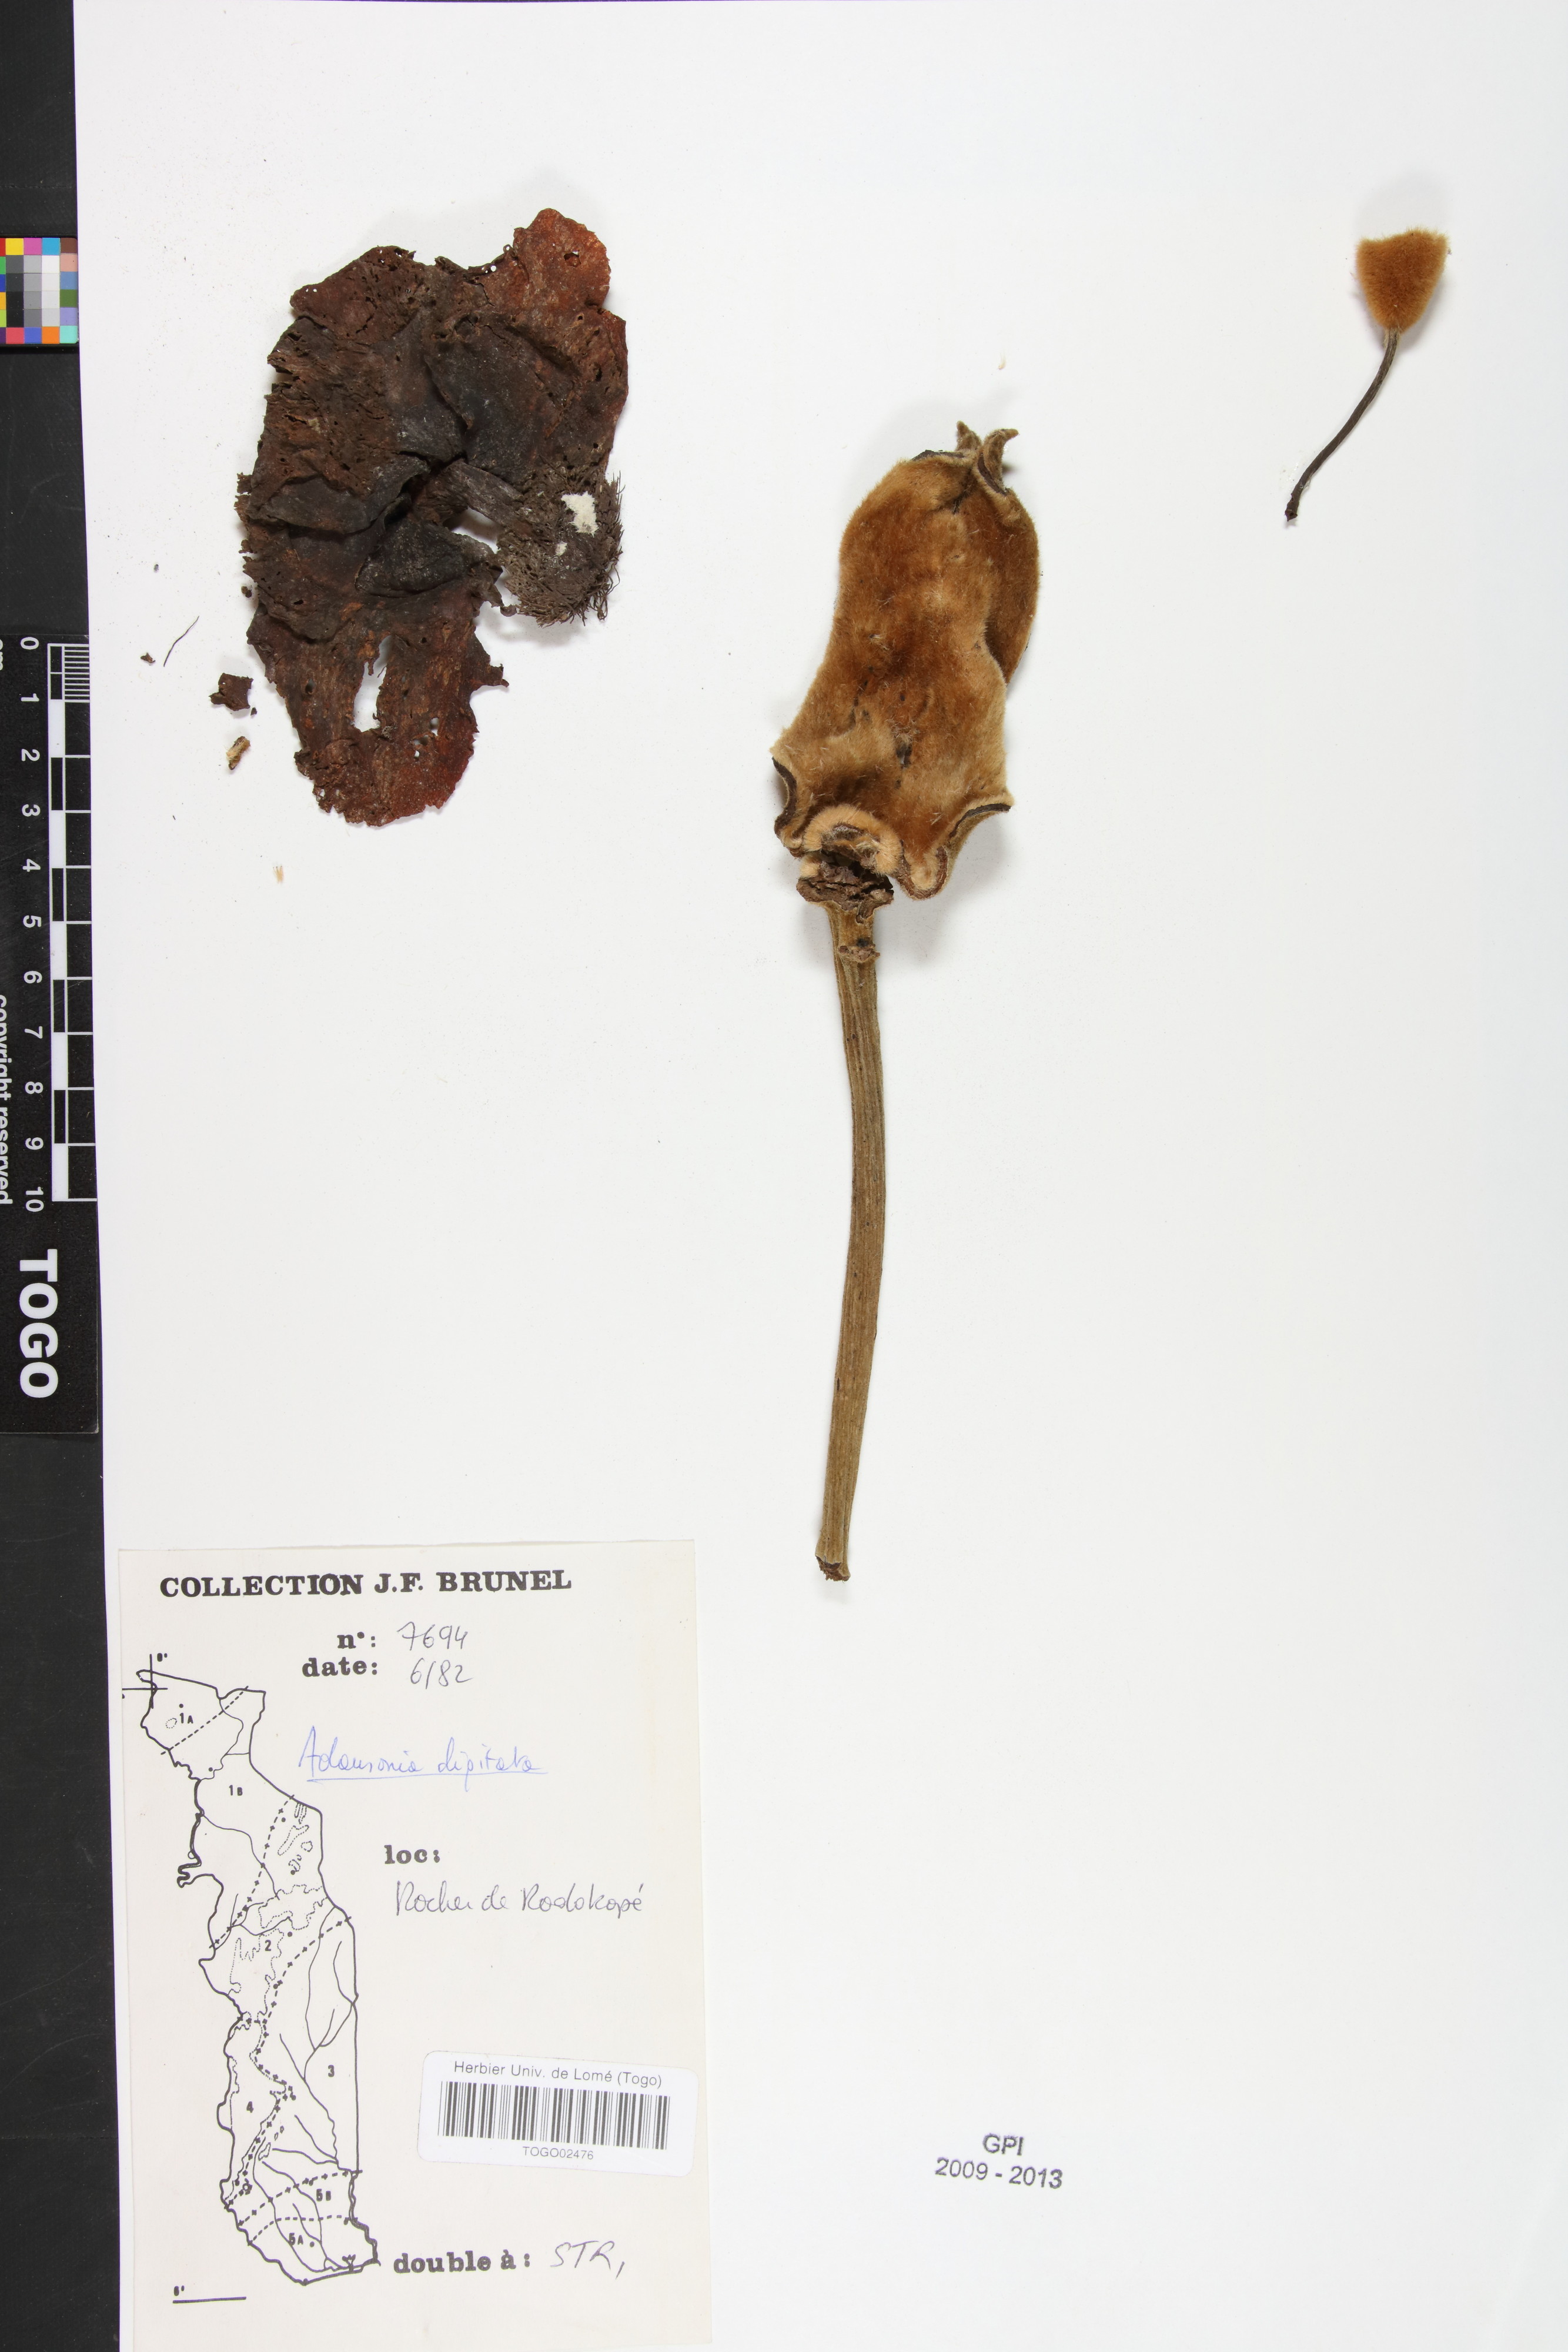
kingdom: Plantae
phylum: Tracheophyta
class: Magnoliopsida
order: Malvales
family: Malvaceae
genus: Adansonia
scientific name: Adansonia digitata
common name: Dead-rat-tree
